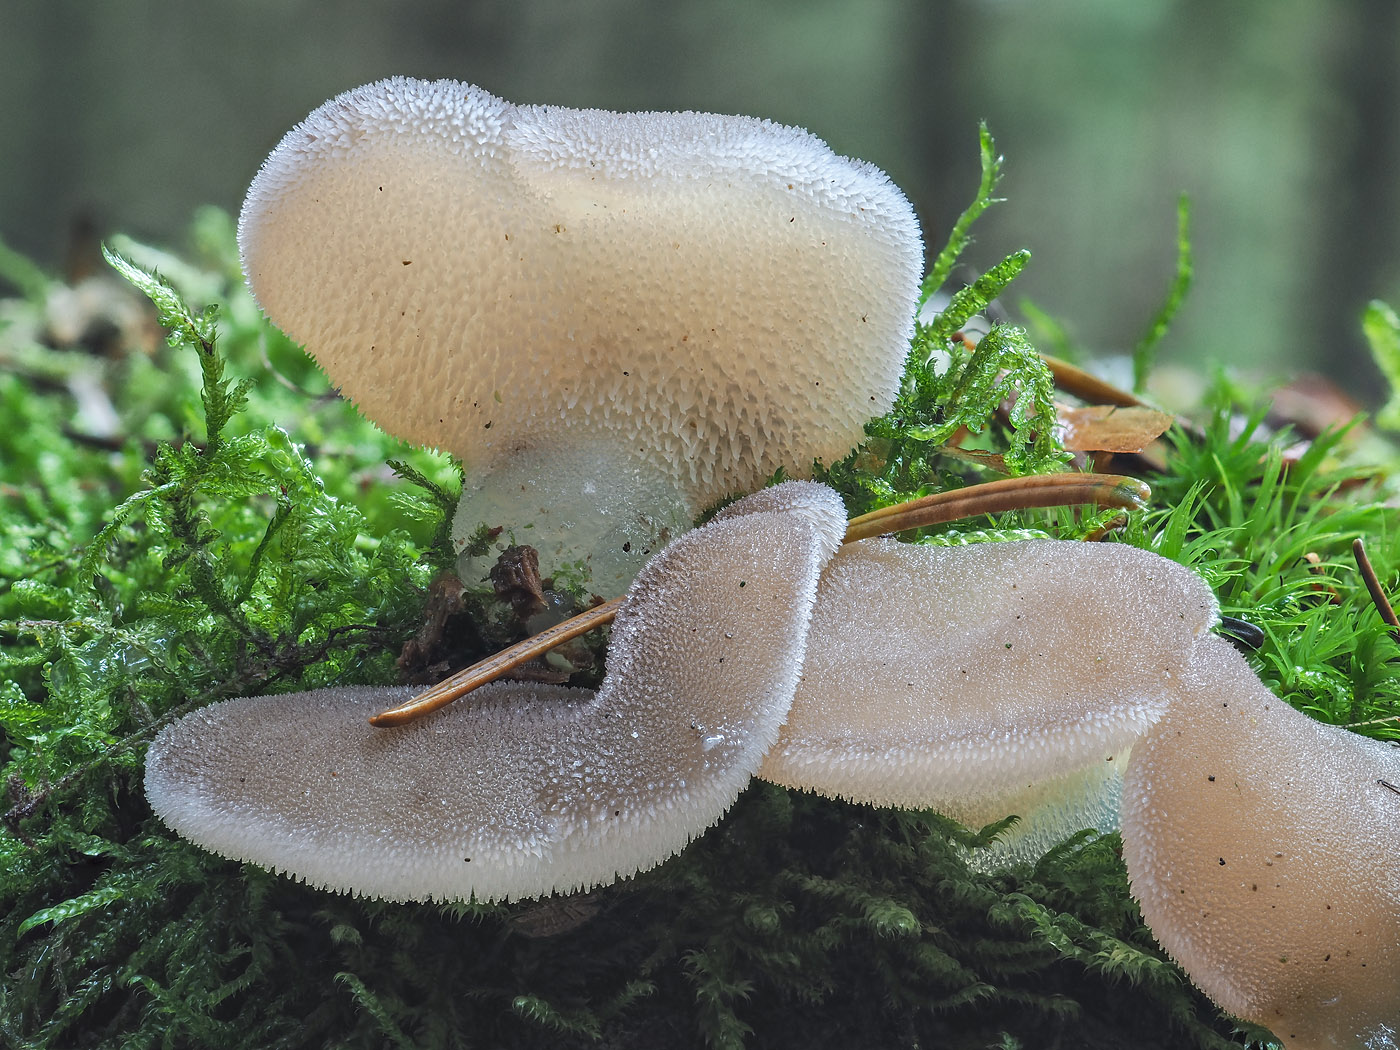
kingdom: Fungi
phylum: Basidiomycota
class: Agaricomycetes
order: Auriculariales
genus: Pseudohydnum
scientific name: Pseudohydnum gelatinosum
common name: bævretand
